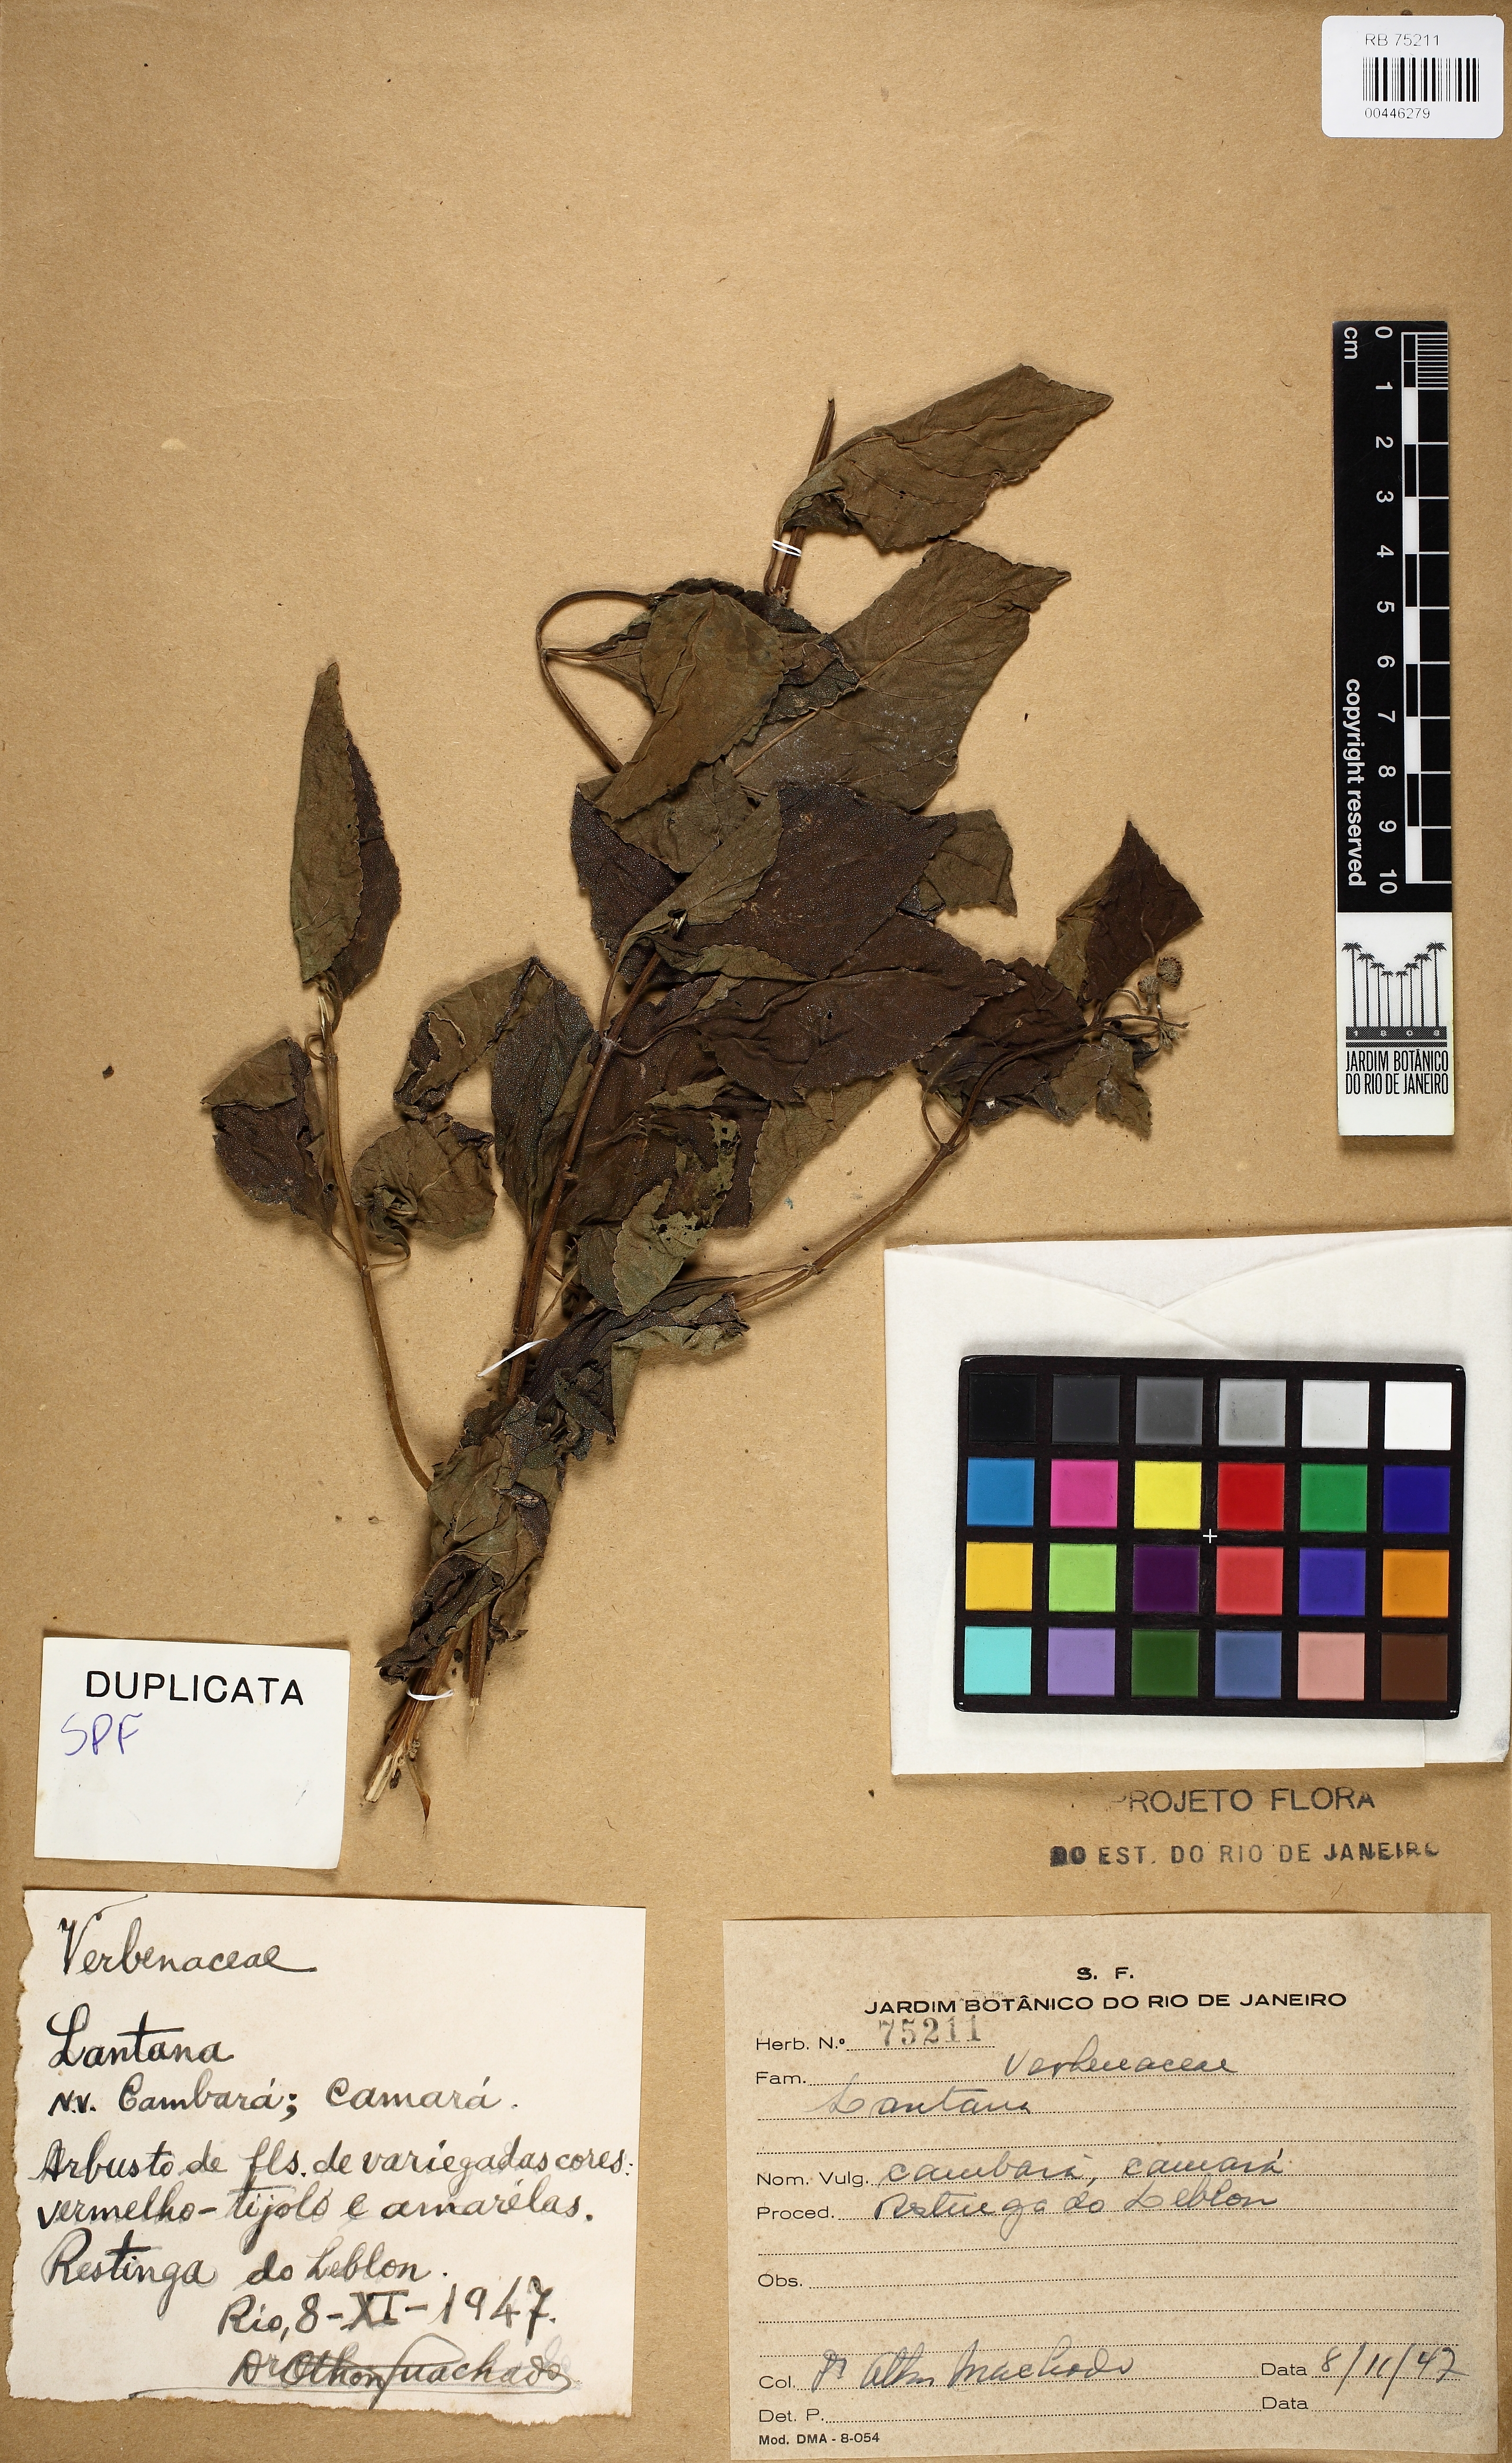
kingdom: Plantae
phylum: Tracheophyta
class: Magnoliopsida
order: Lamiales
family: Verbenaceae
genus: Lantana
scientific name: Lantana
